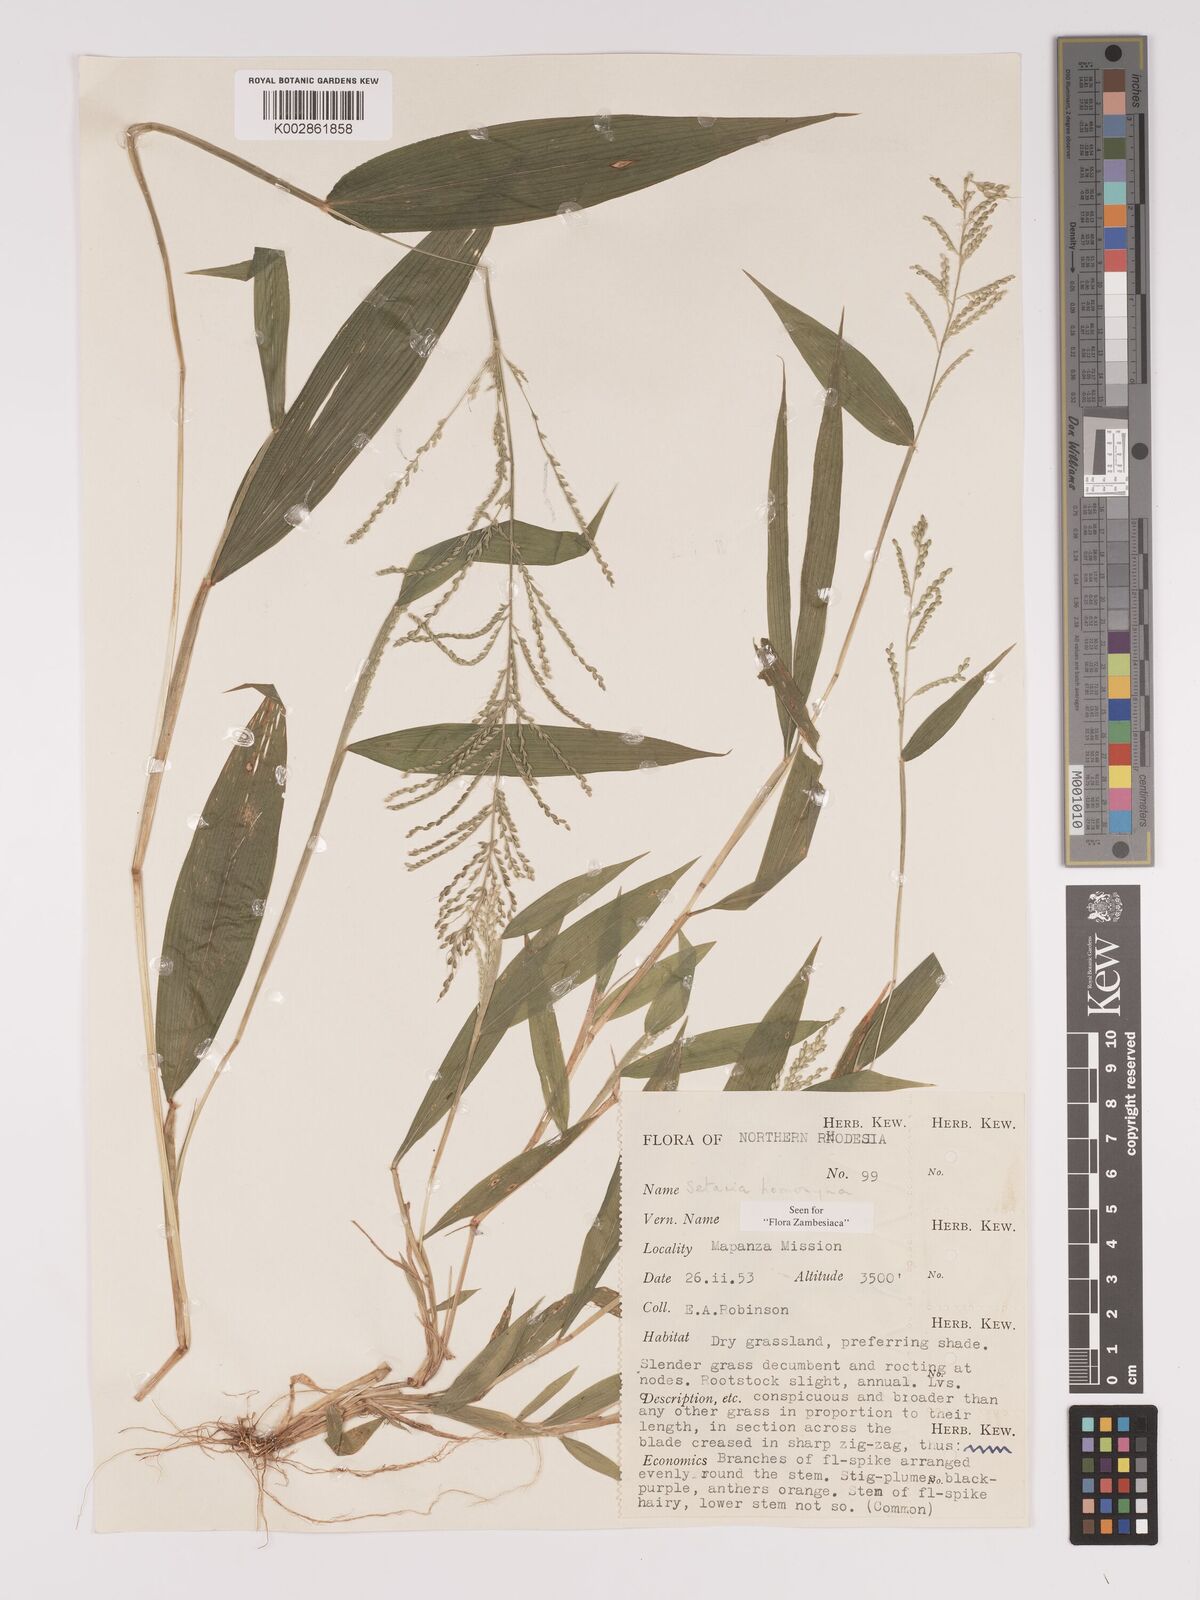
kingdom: Plantae
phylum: Tracheophyta
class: Liliopsida
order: Poales
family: Poaceae
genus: Setaria
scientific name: Setaria homonyma
